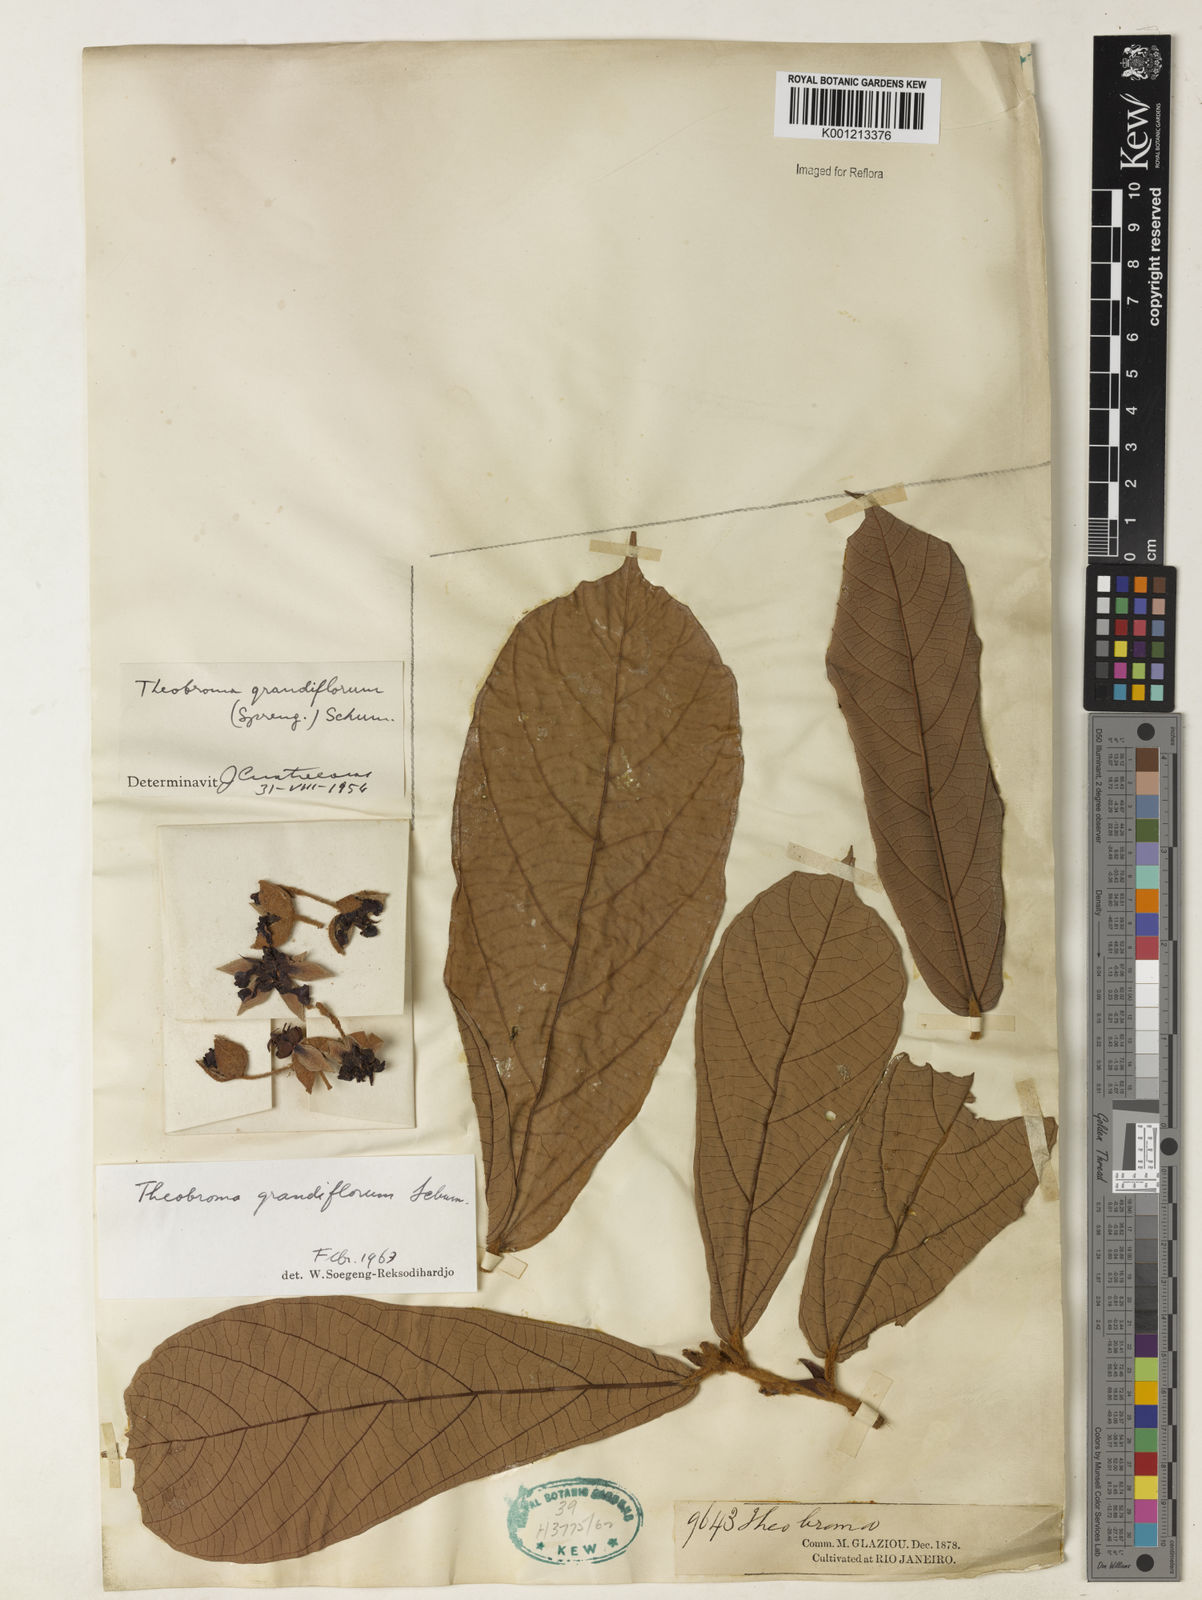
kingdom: Plantae
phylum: Tracheophyta
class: Magnoliopsida
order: Malvales
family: Malvaceae
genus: Theobroma
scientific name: Theobroma grandiflorum
